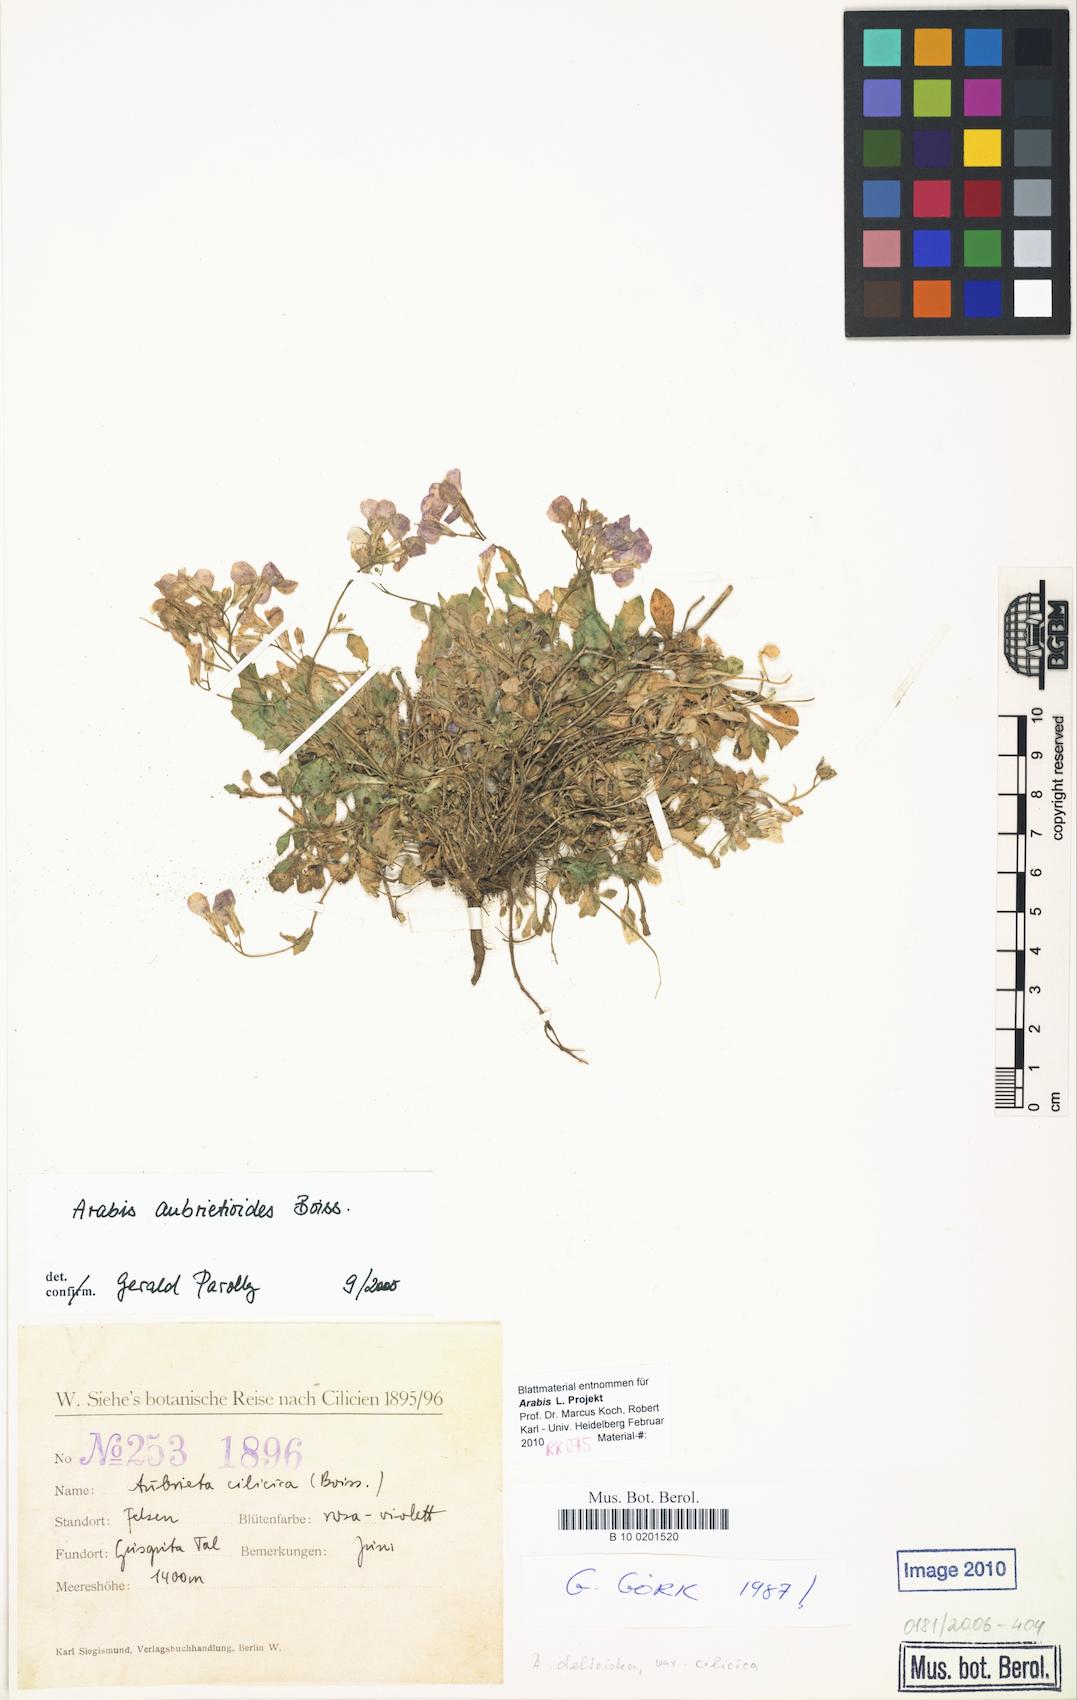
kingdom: Plantae
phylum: Tracheophyta
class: Magnoliopsida
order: Brassicales
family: Brassicaceae
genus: Arabis
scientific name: Arabis aubrietioides
